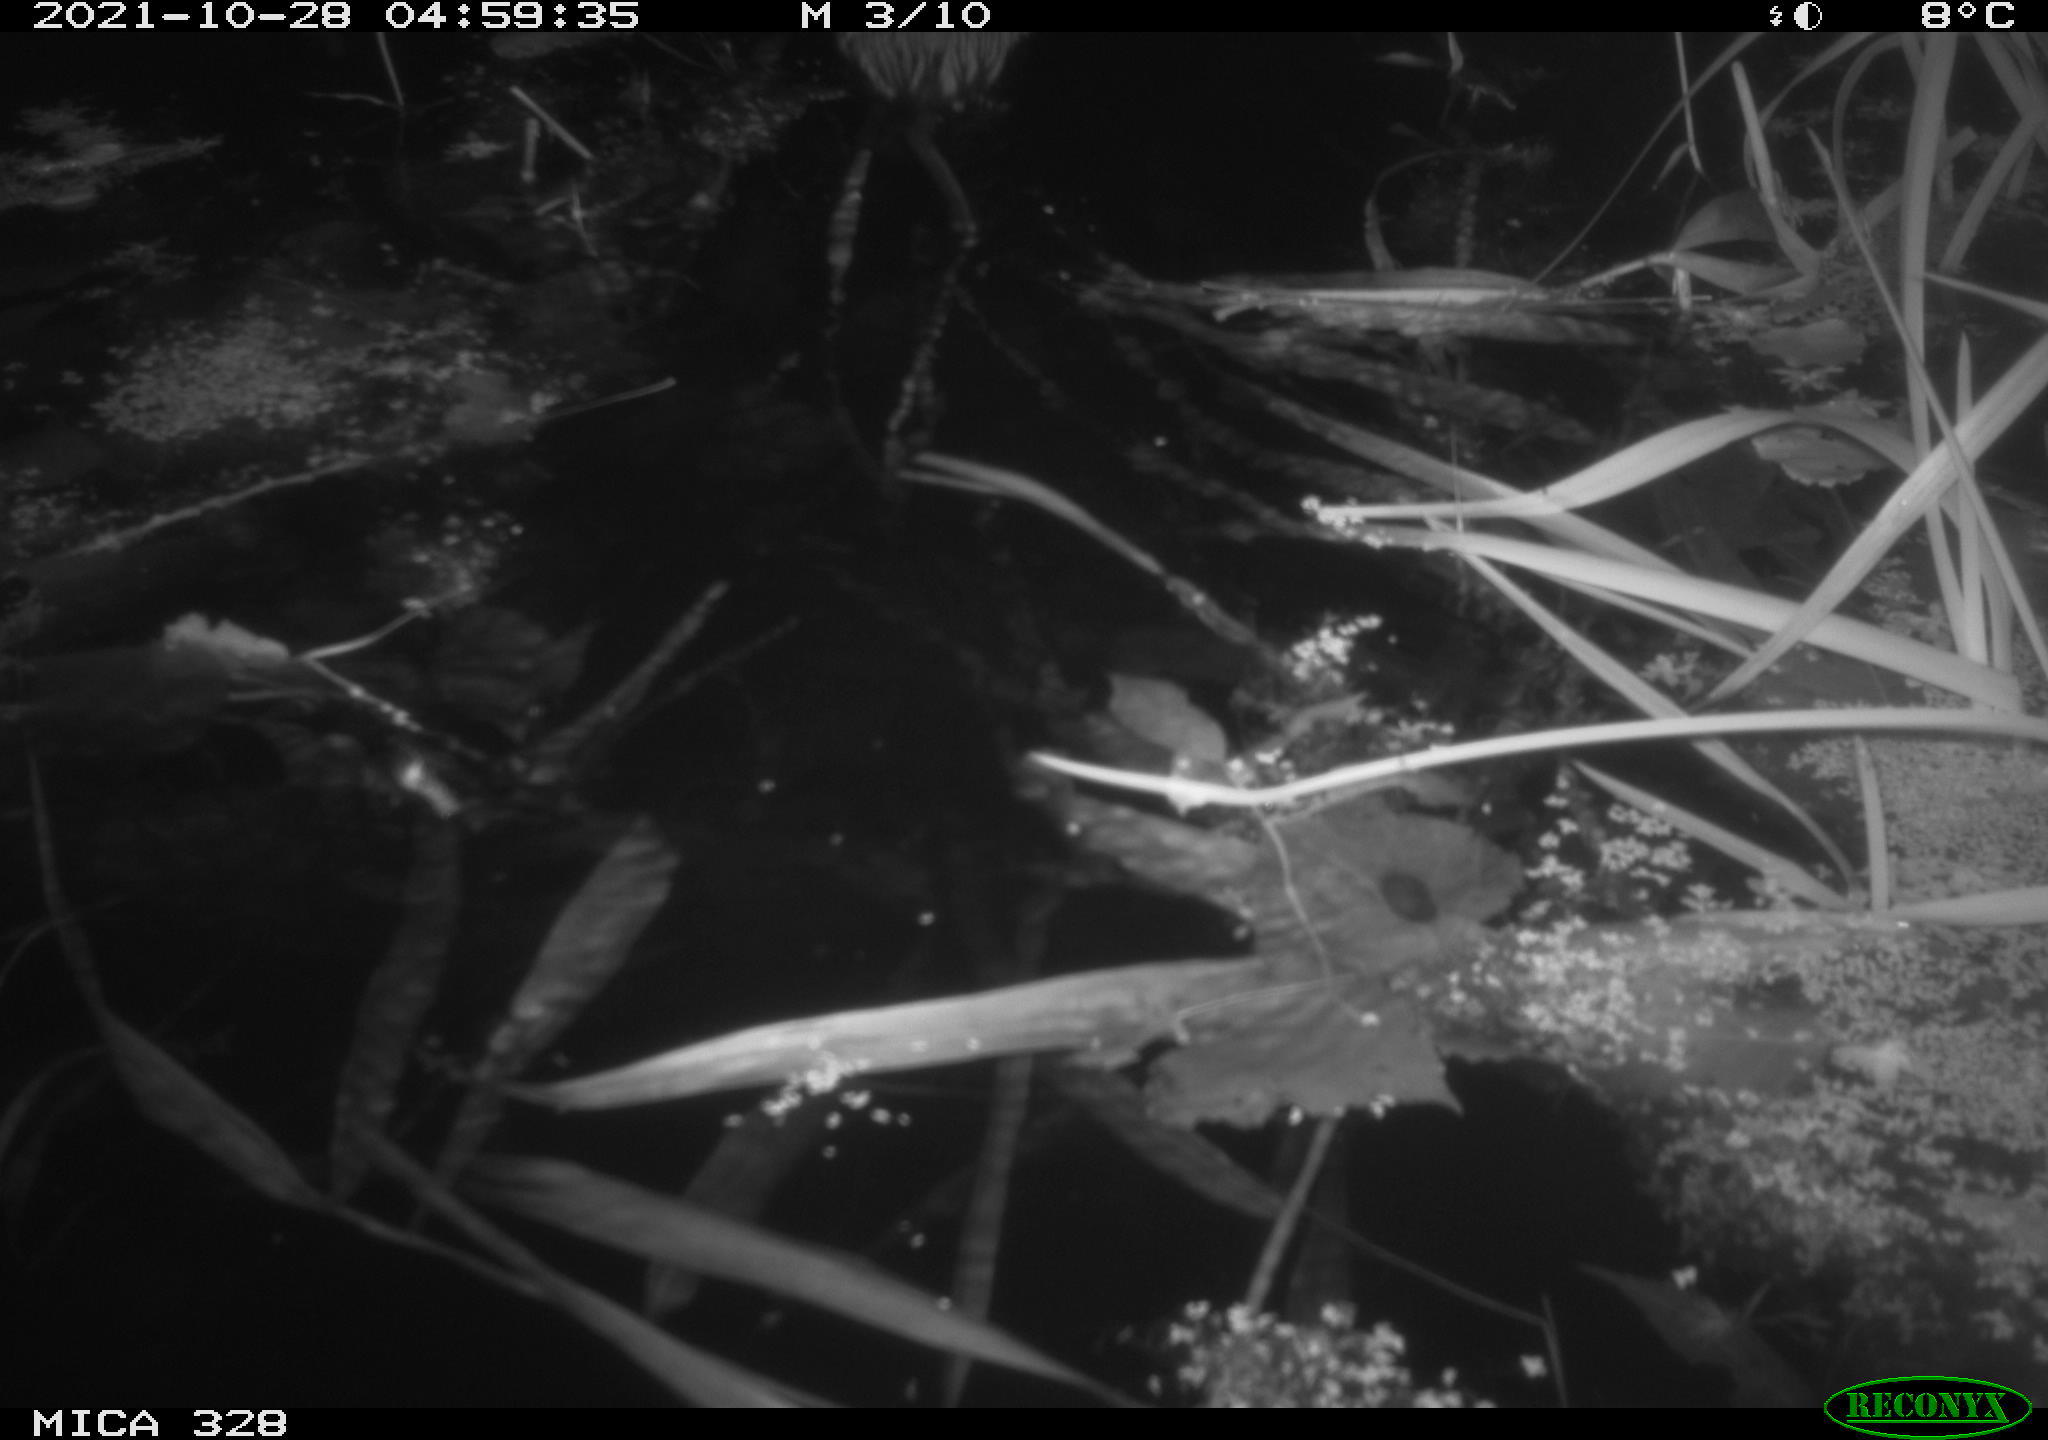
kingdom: Animalia
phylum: Chordata
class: Mammalia
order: Rodentia
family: Cricetidae
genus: Ondatra
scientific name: Ondatra zibethicus
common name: Muskrat
